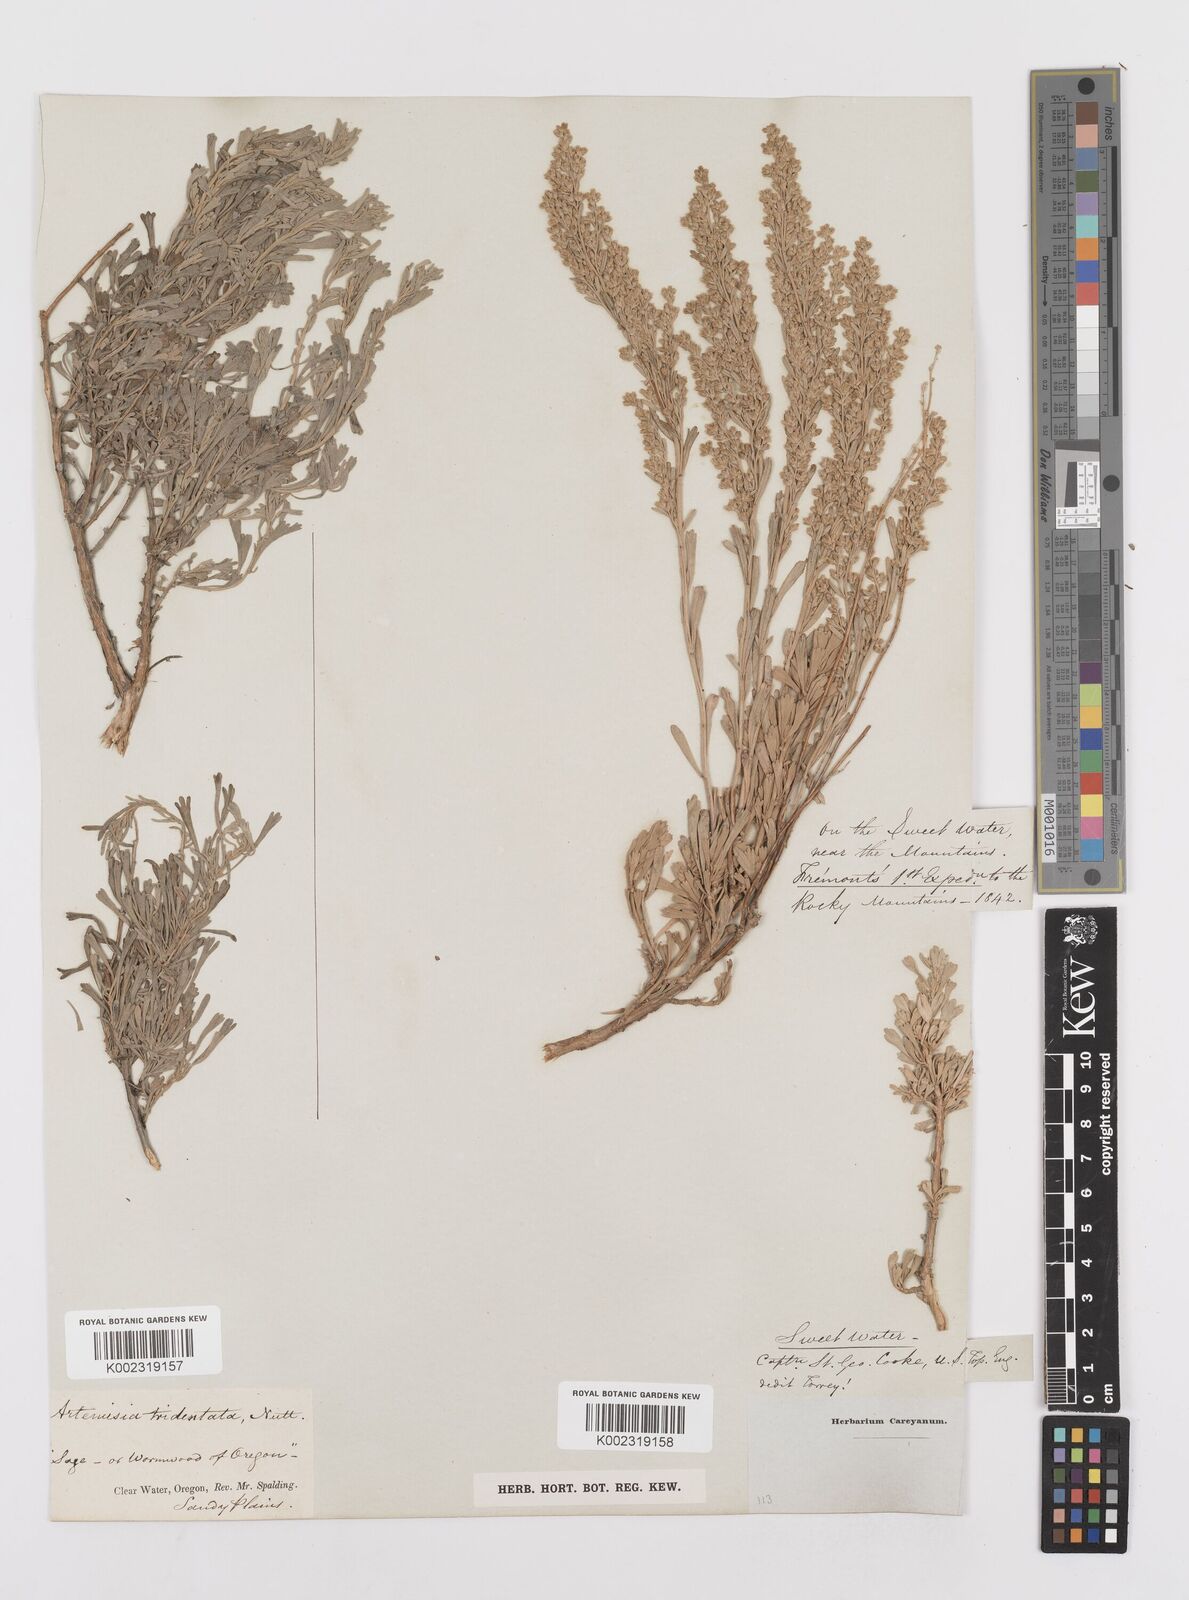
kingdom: Plantae
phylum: Tracheophyta
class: Magnoliopsida
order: Asterales
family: Asteraceae
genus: Artemisia
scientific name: Artemisia tridentata
